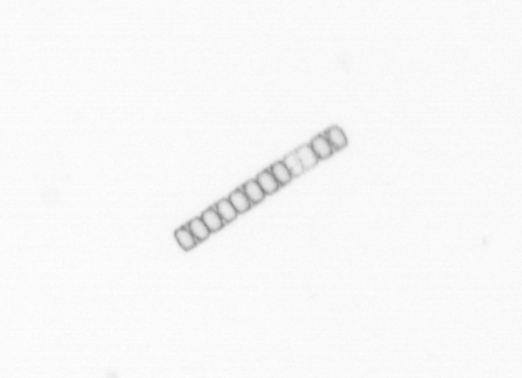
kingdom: Chromista
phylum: Ochrophyta
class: Bacillariophyceae
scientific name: Bacillariophyceae
